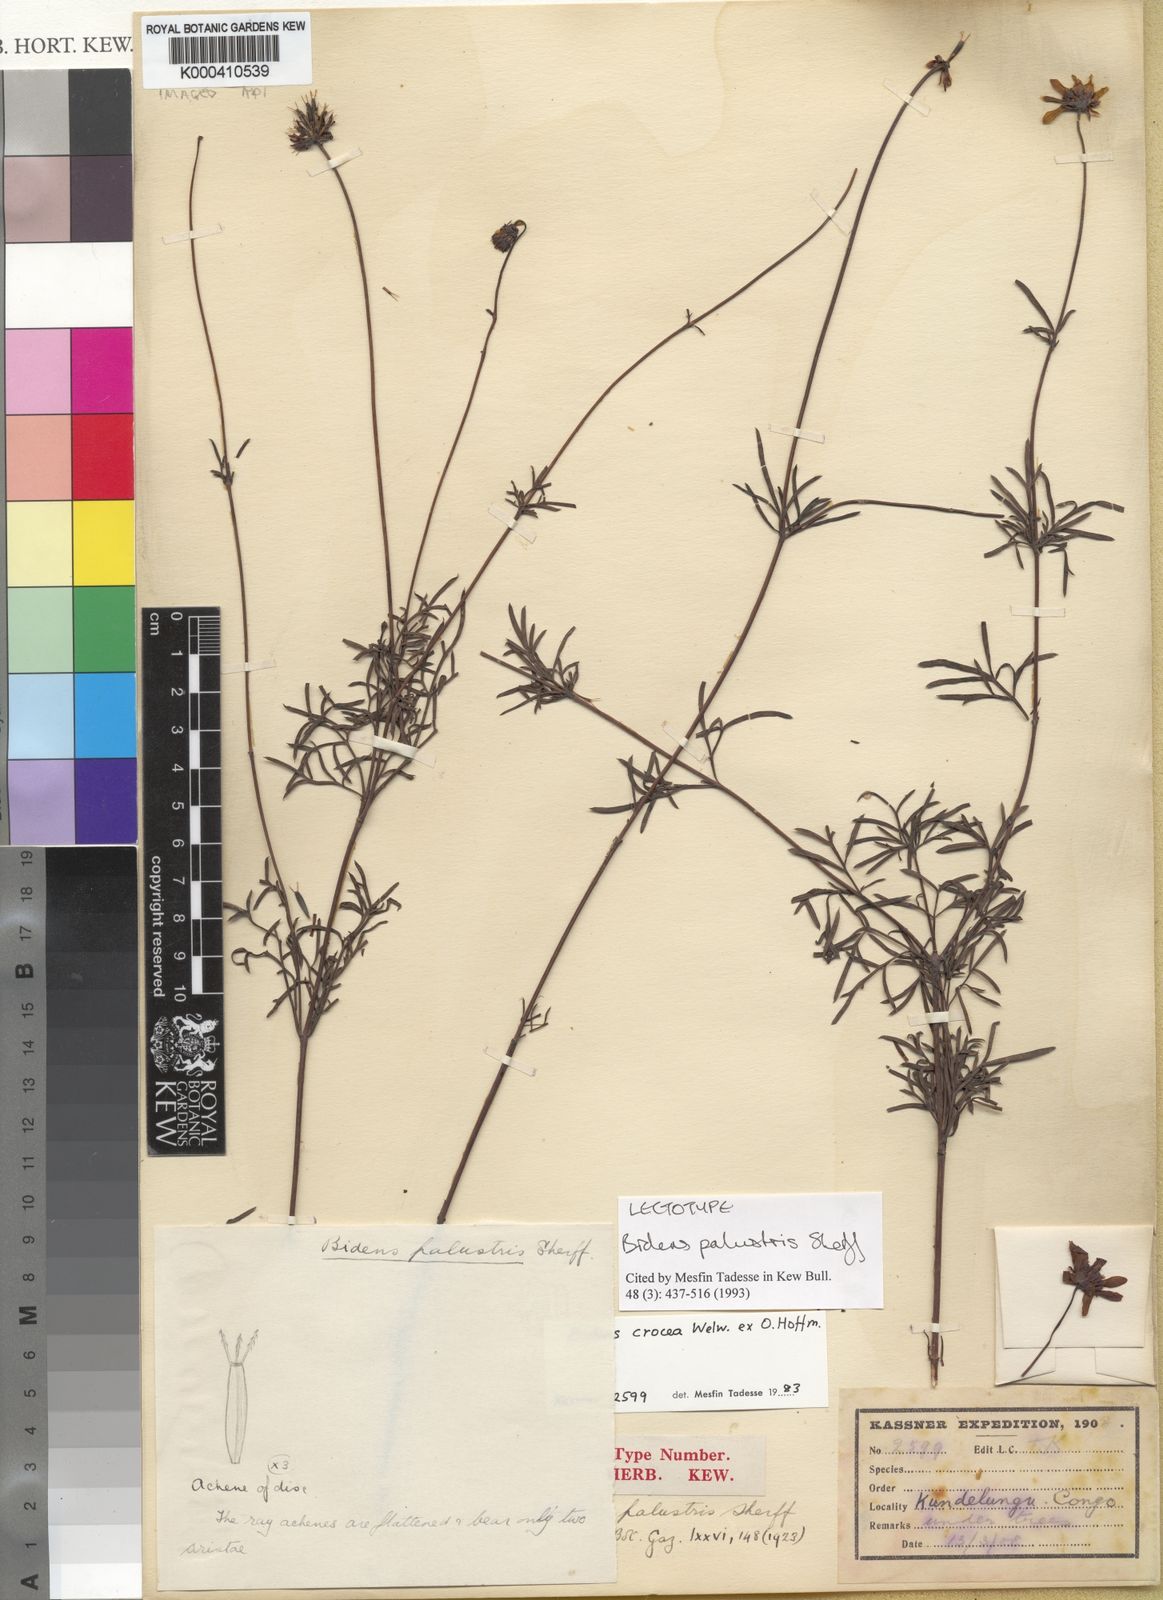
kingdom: Plantae
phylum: Tracheophyta
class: Magnoliopsida
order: Asterales
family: Asteraceae
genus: Bidens
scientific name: Bidens crocea
